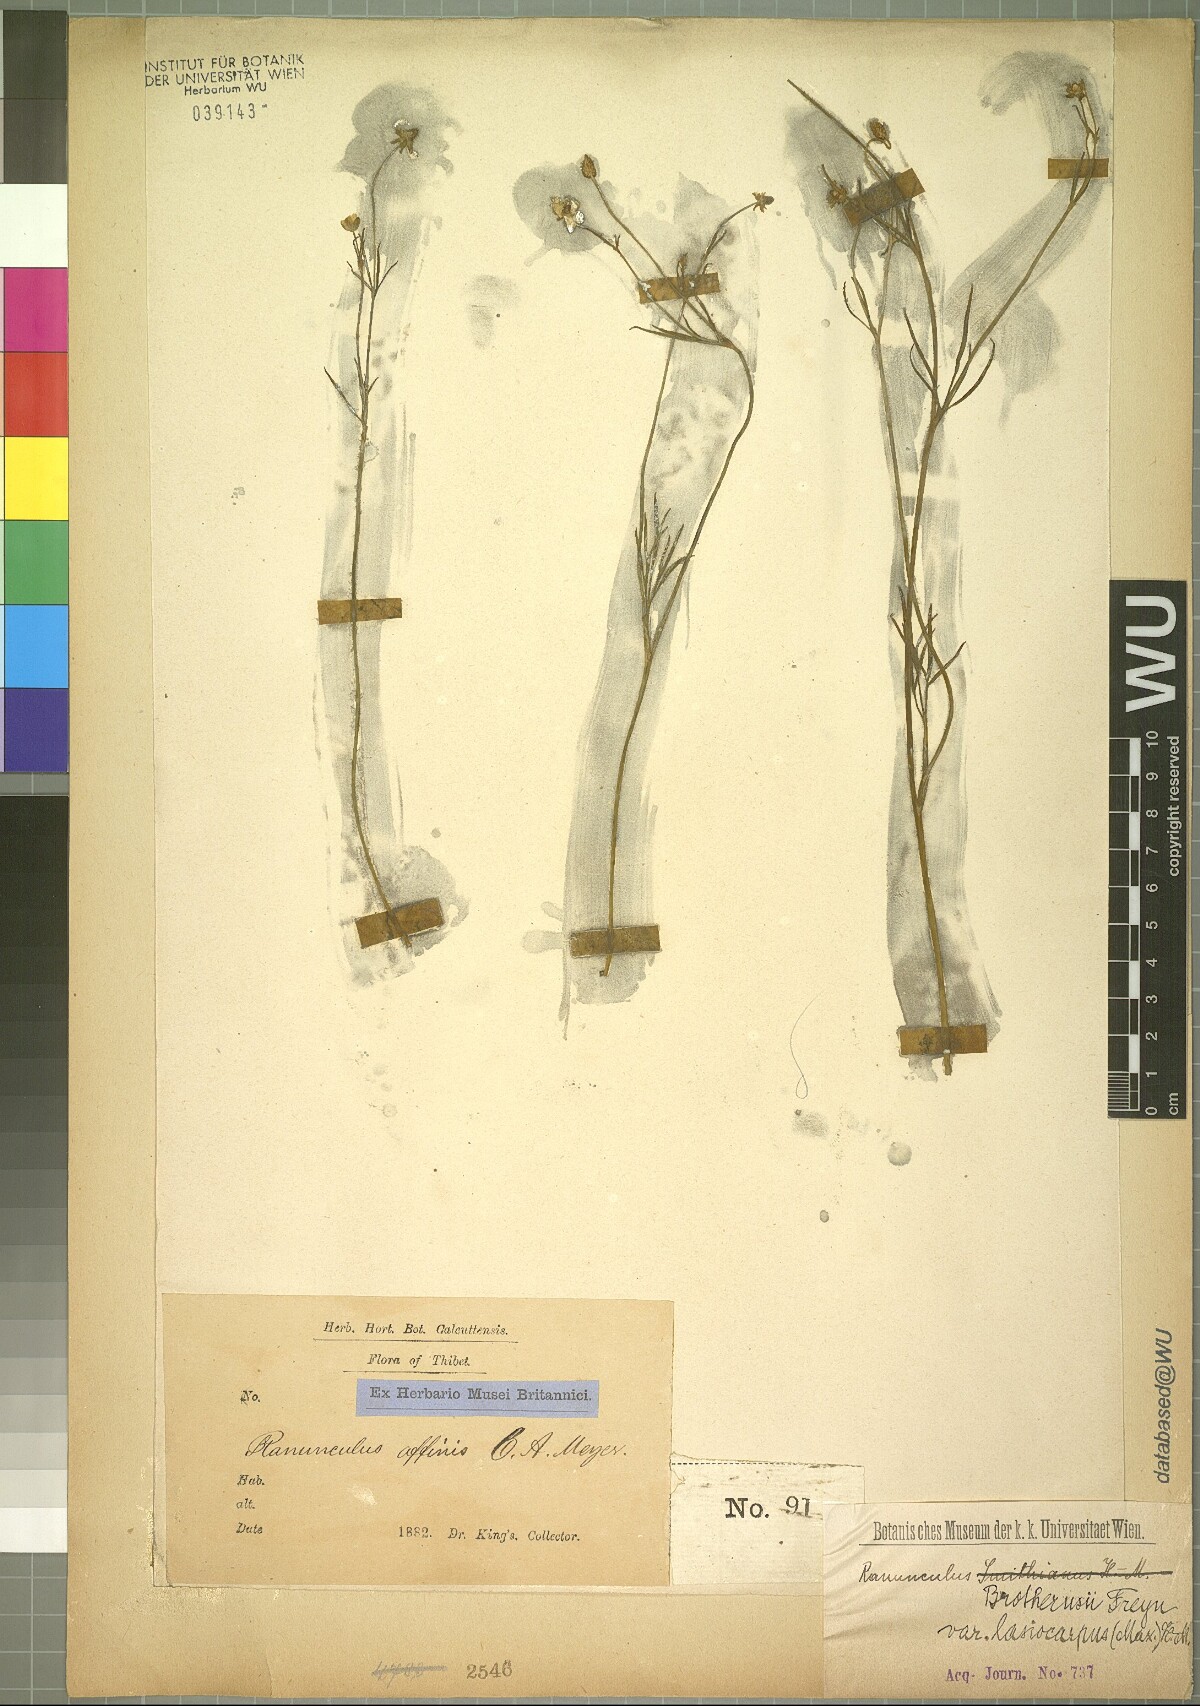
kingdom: Plantae
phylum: Tracheophyta
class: Magnoliopsida
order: Ranunculales
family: Ranunculaceae
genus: Ranunculus
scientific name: Ranunculus brotherusii
